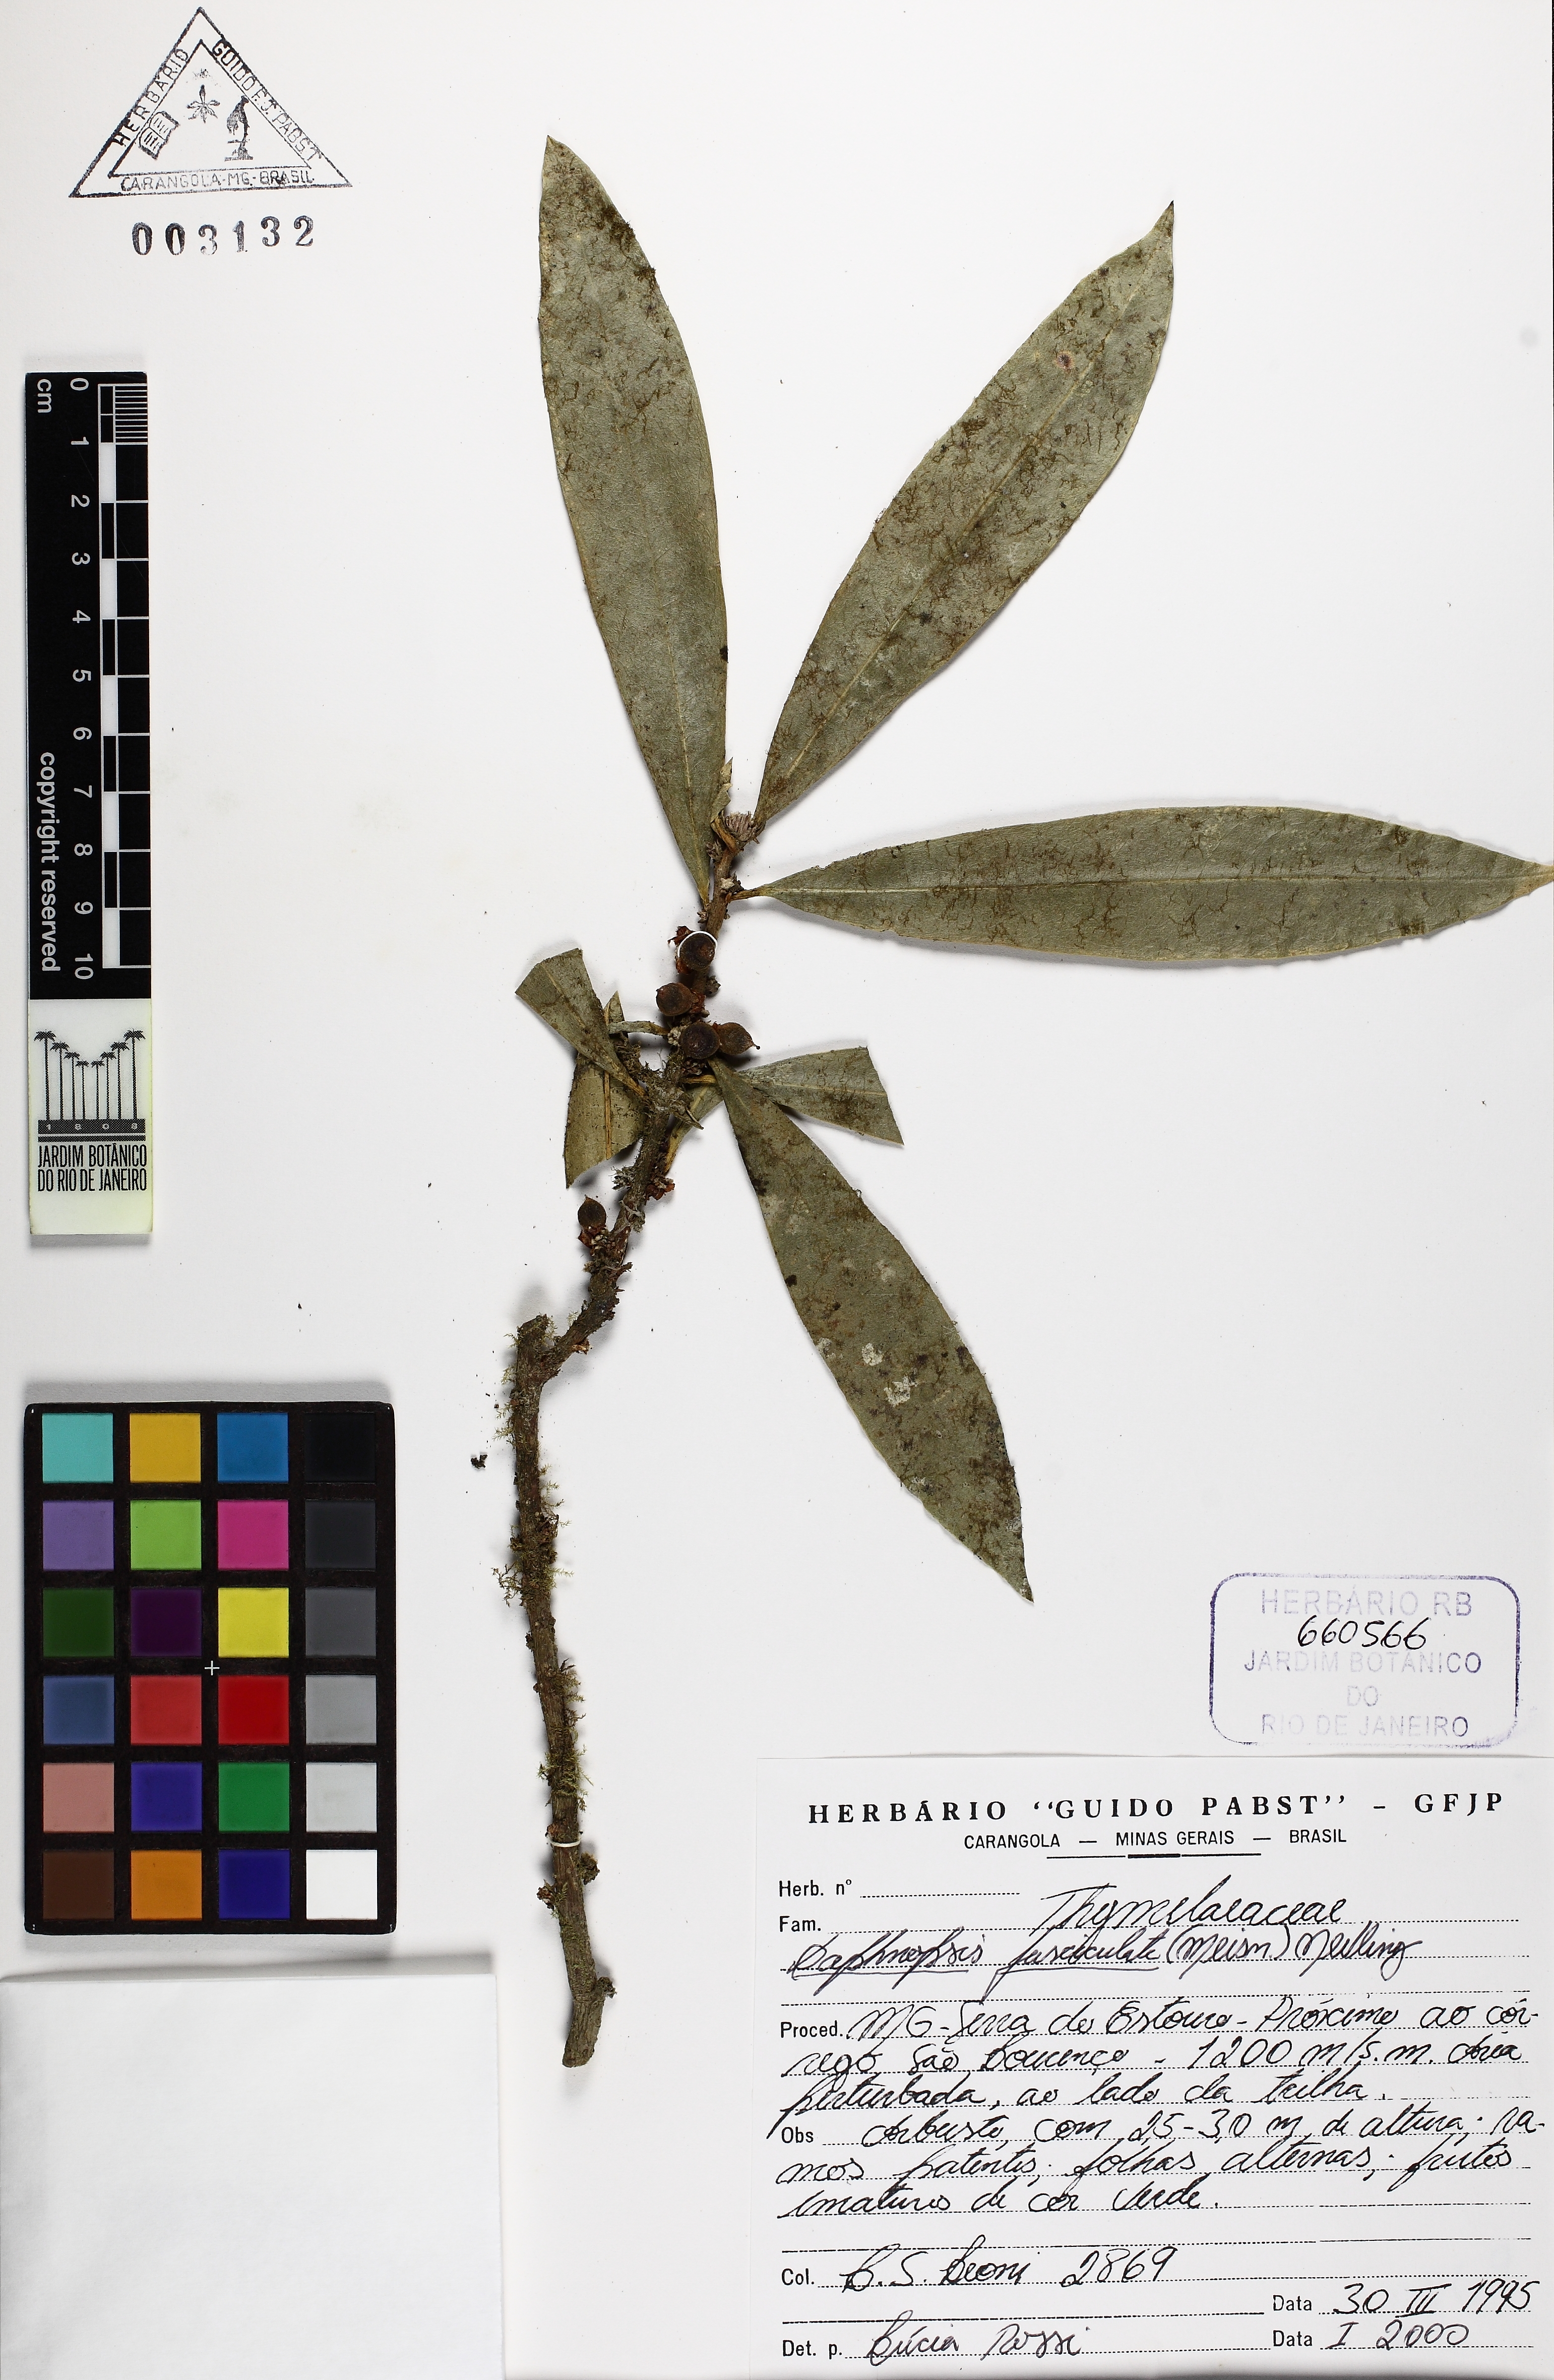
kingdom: Plantae
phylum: Tracheophyta
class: Magnoliopsida
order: Malvales
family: Thymelaeaceae
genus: Daphnopsis
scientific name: Daphnopsis fasciculata
